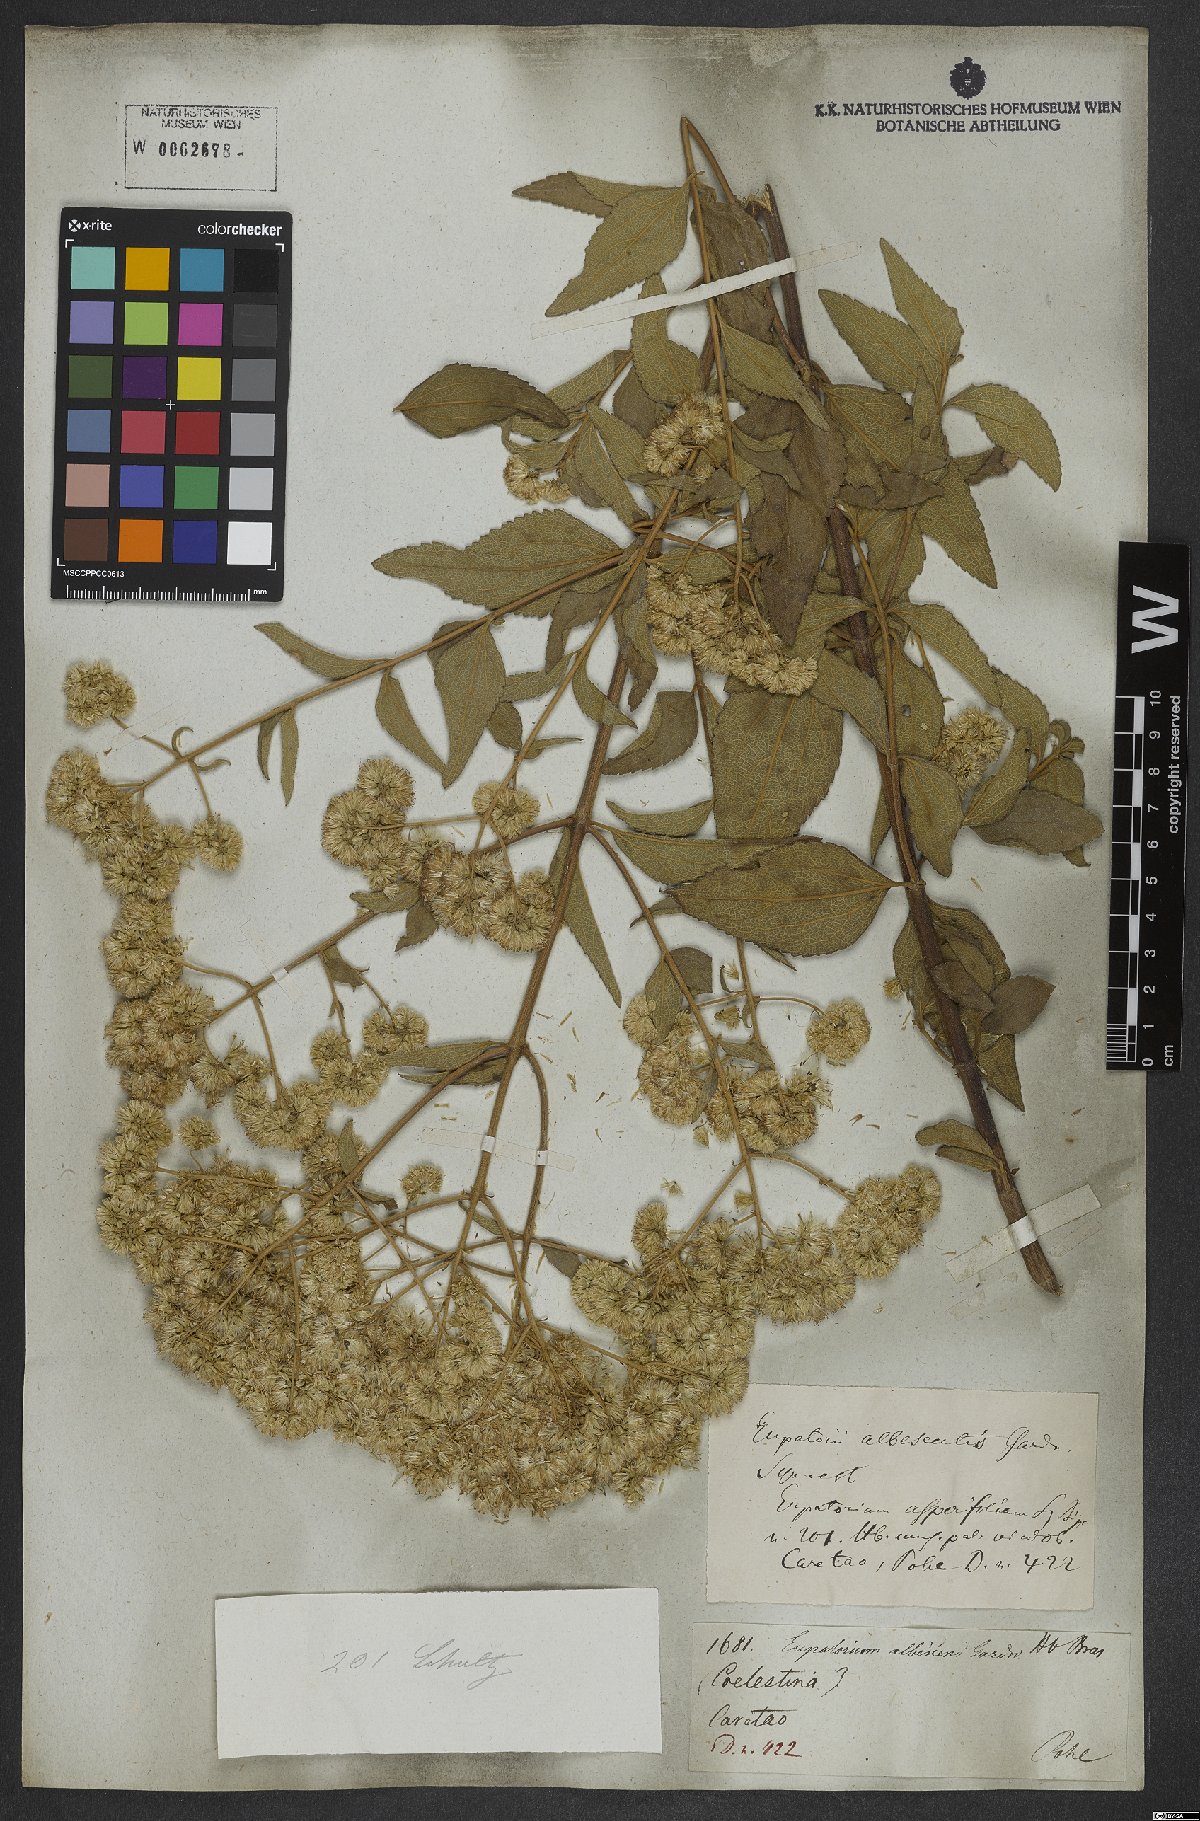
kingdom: Plantae
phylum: Tracheophyta
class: Magnoliopsida
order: Asterales
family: Asteraceae
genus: Austroeupatorium
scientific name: Austroeupatorium silphiifolium
